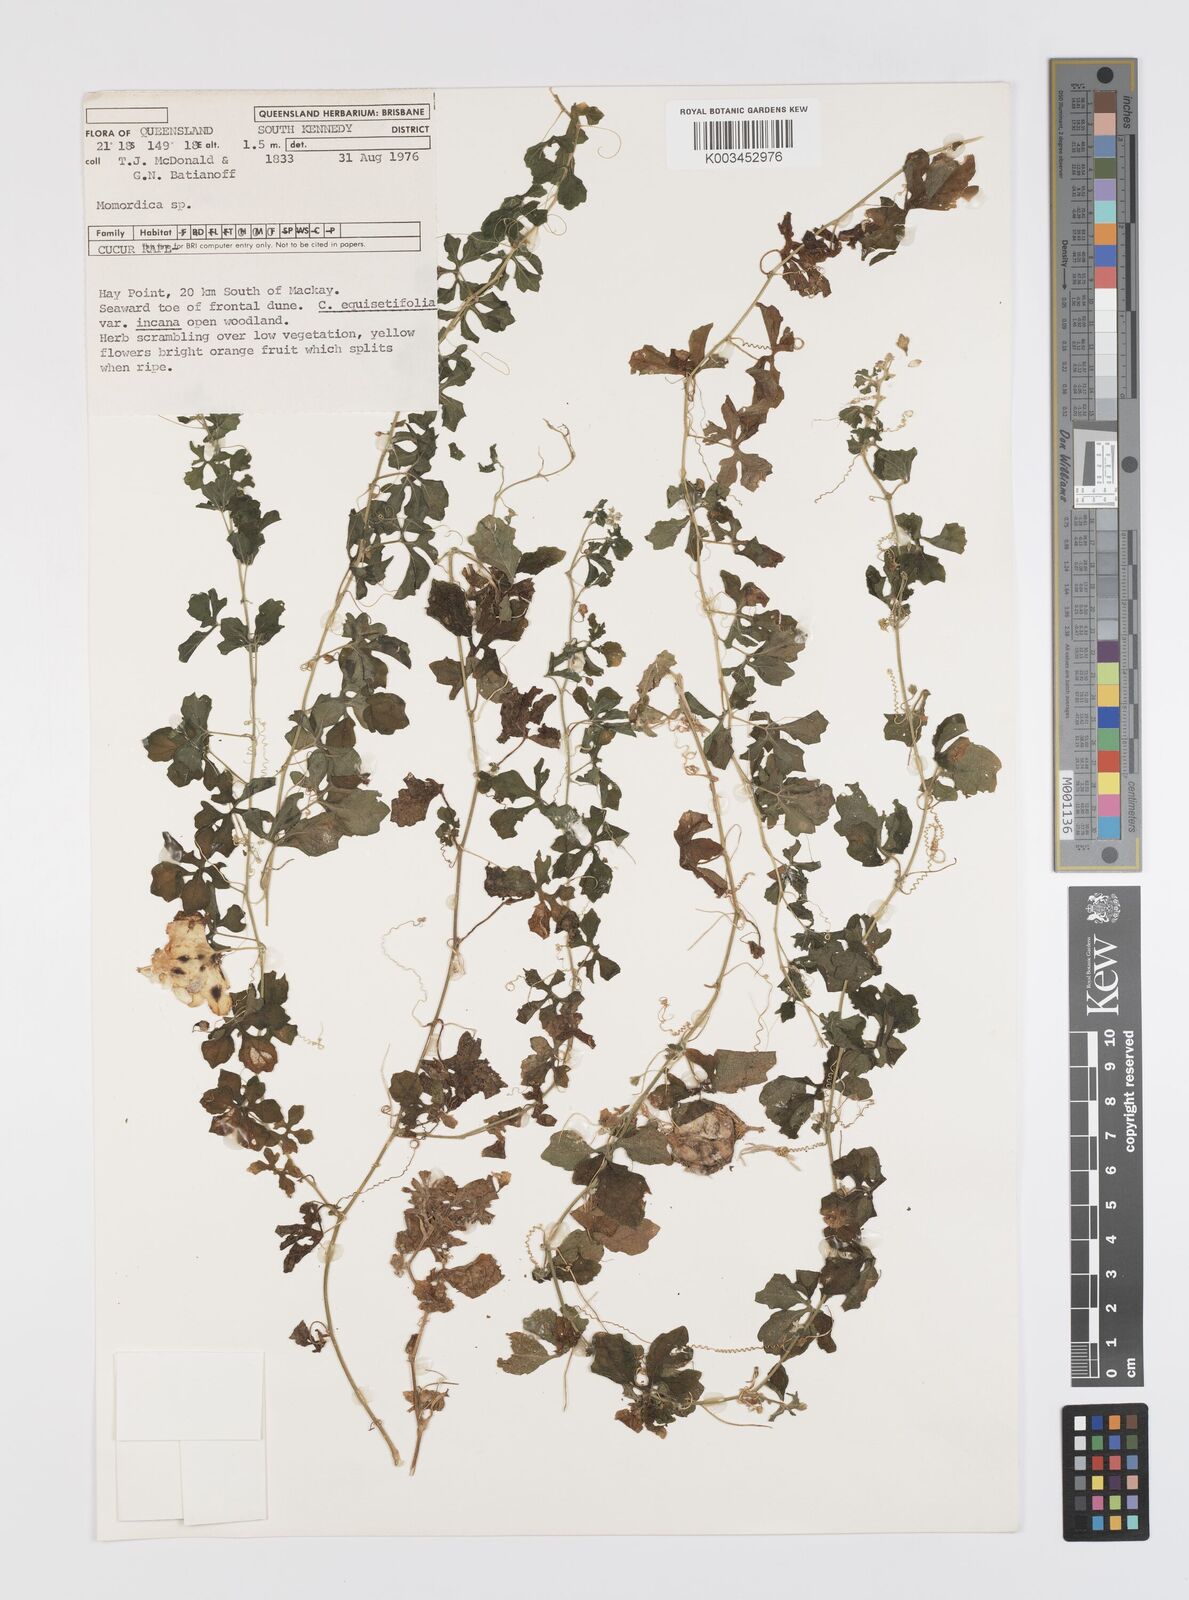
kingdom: Plantae
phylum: Tracheophyta
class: Magnoliopsida
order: Cucurbitales
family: Cucurbitaceae
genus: Momordica
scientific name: Momordica
